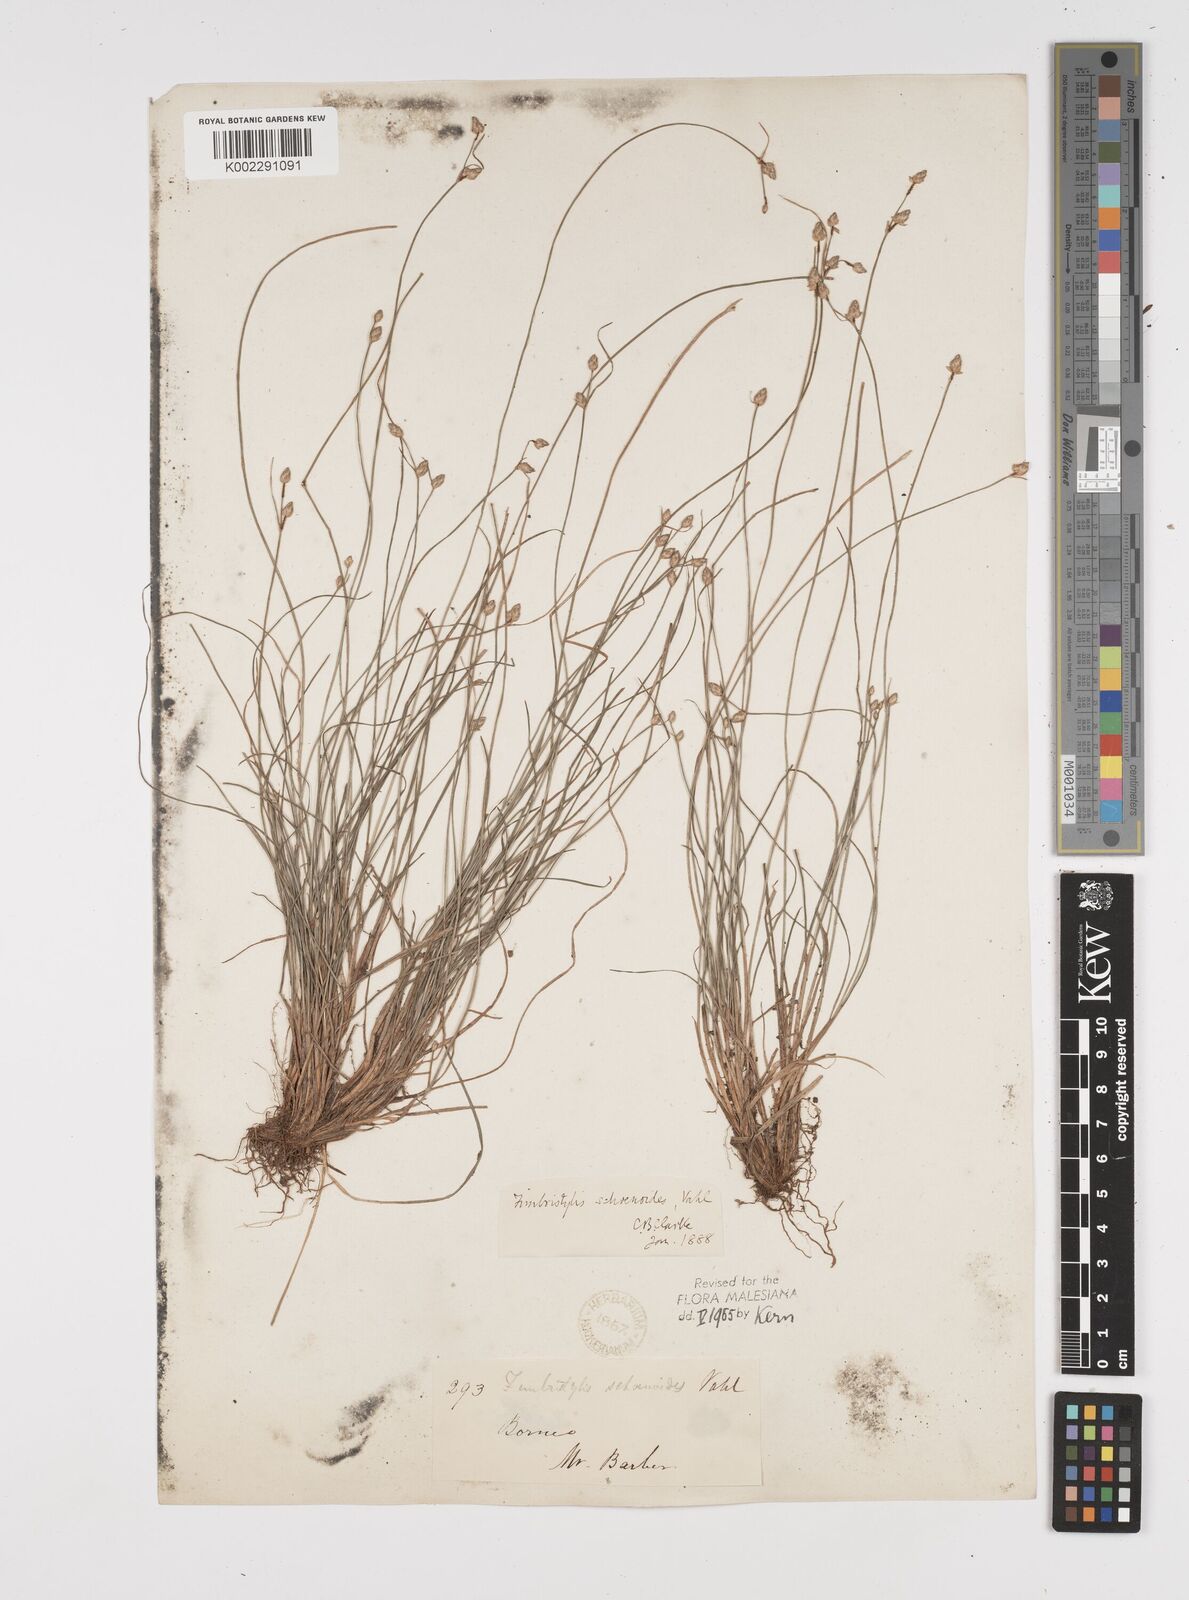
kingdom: Plantae
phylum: Tracheophyta
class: Liliopsida
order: Poales
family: Cyperaceae
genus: Fimbristylis
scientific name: Fimbristylis schoenoides
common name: Ditch fimbry
